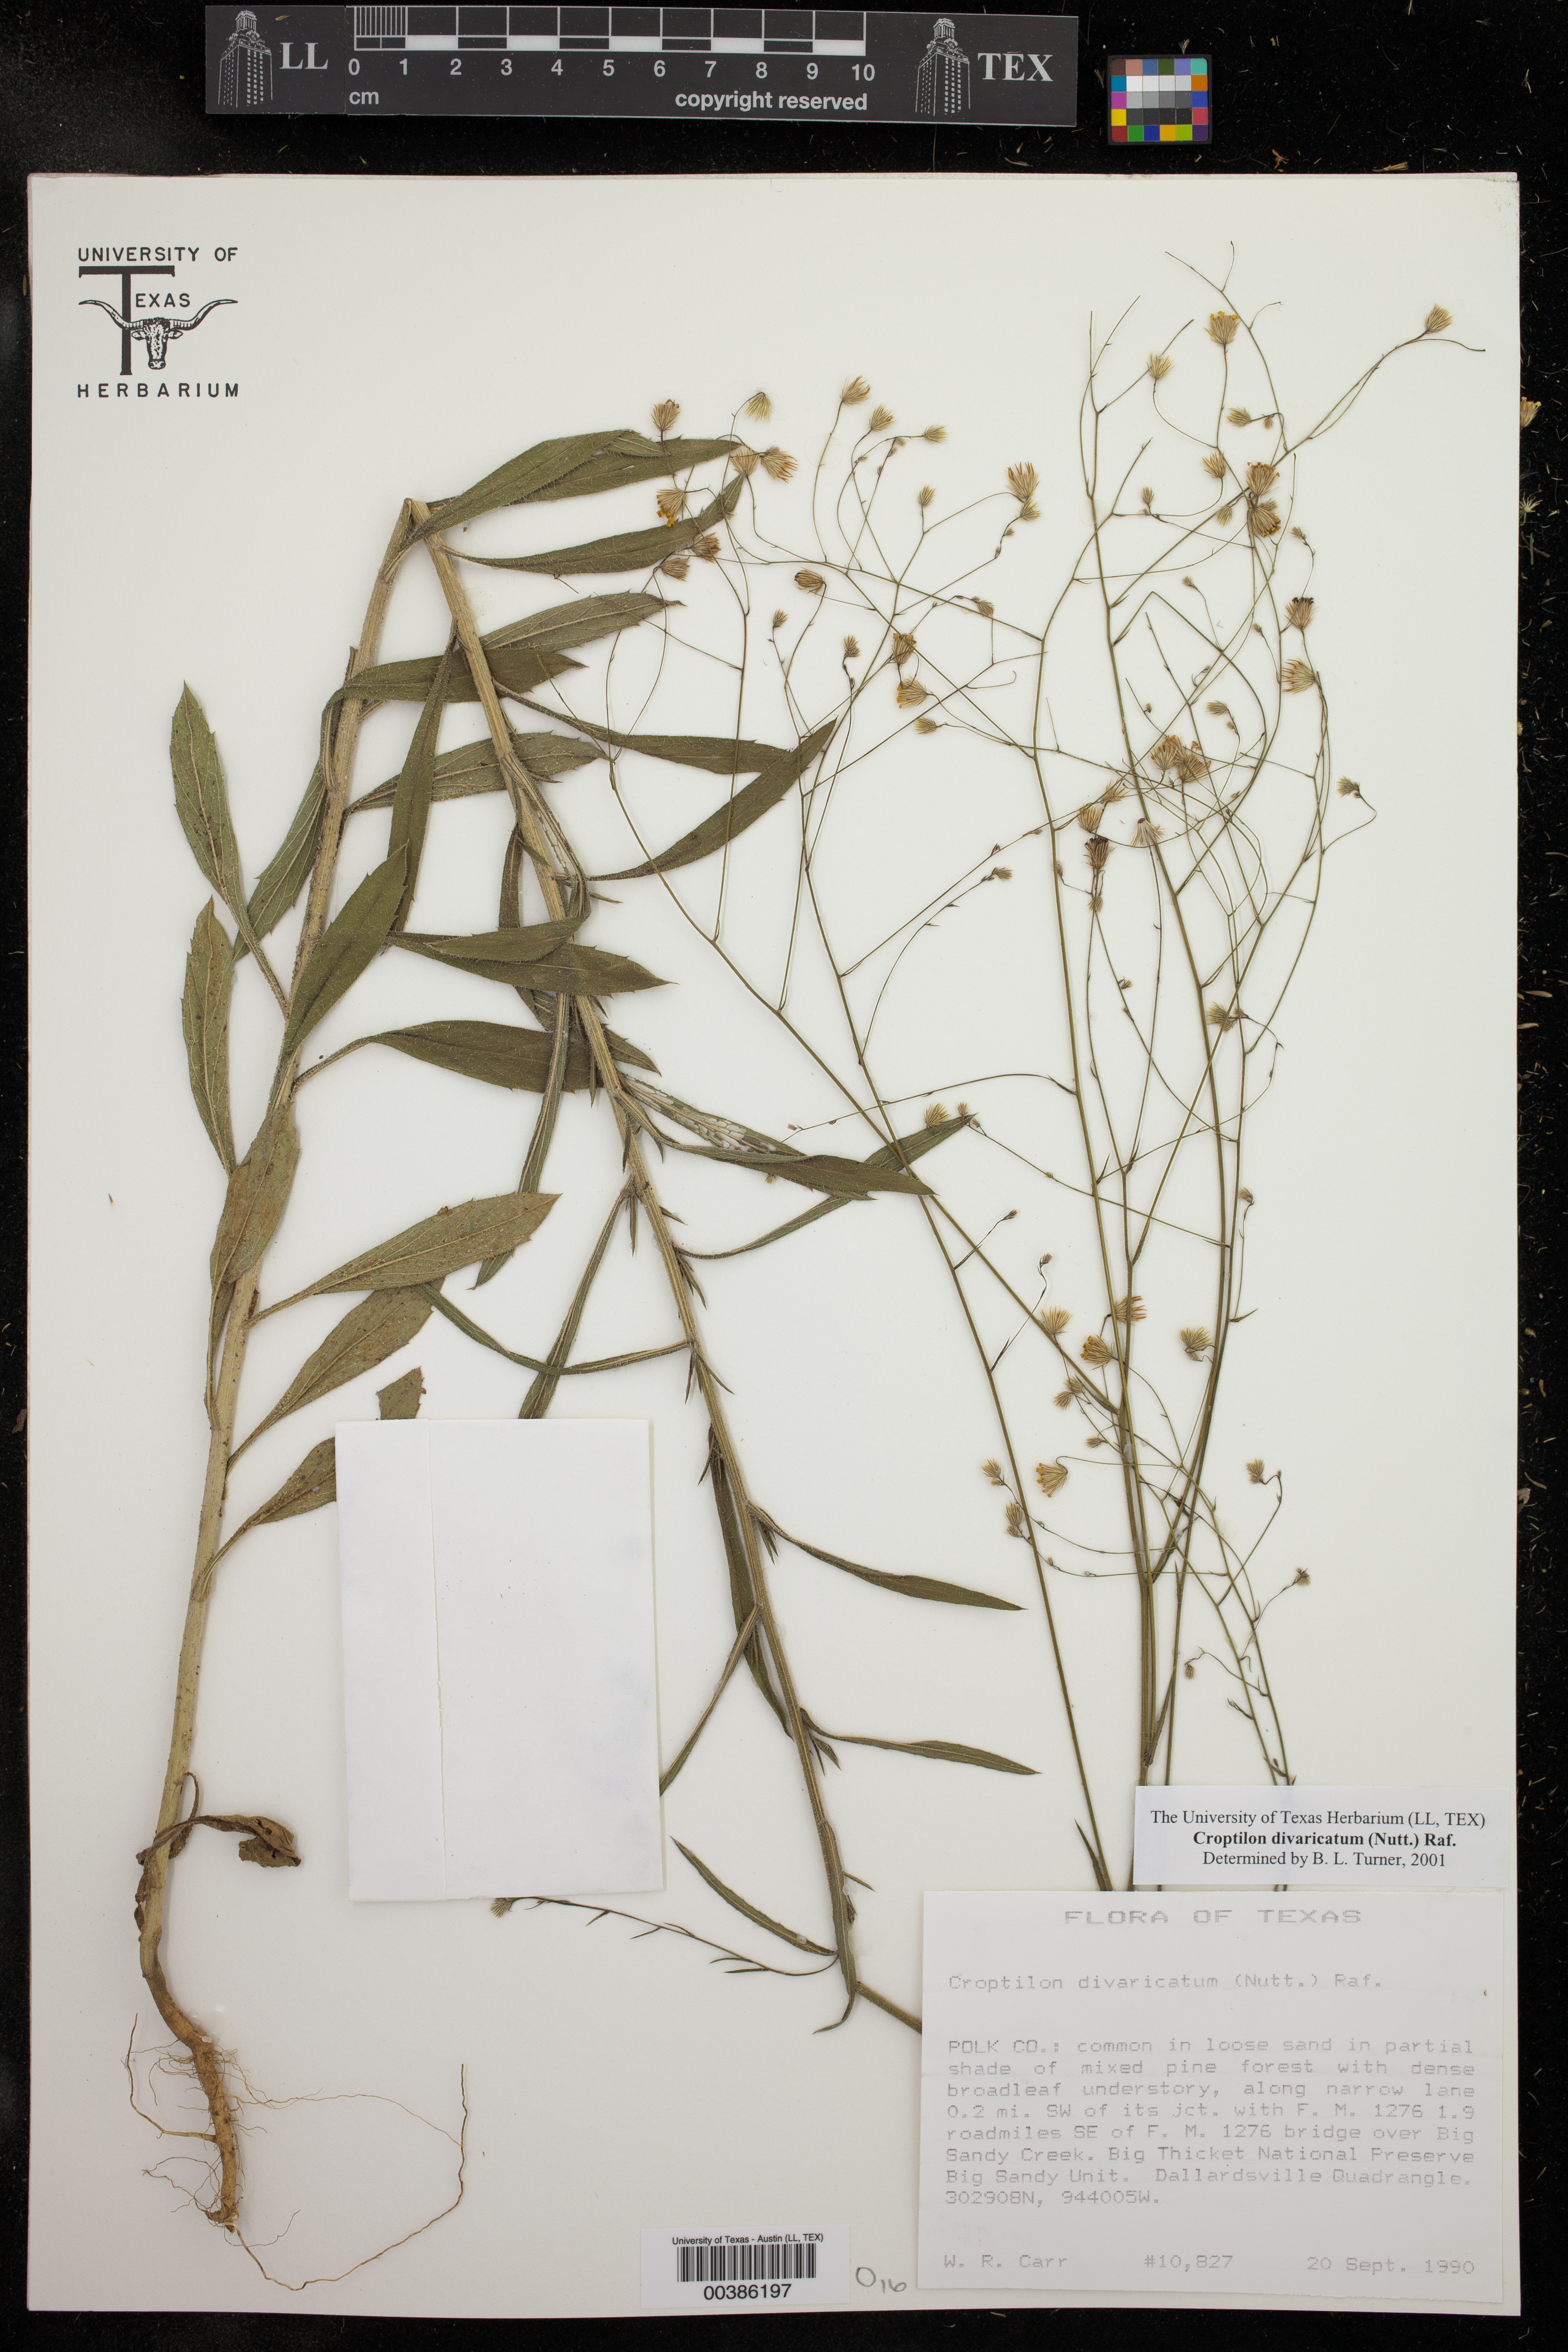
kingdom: Plantae
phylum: Tracheophyta
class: Magnoliopsida
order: Asterales
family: Asteraceae
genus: Croptilon
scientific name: Croptilon divaricatum
